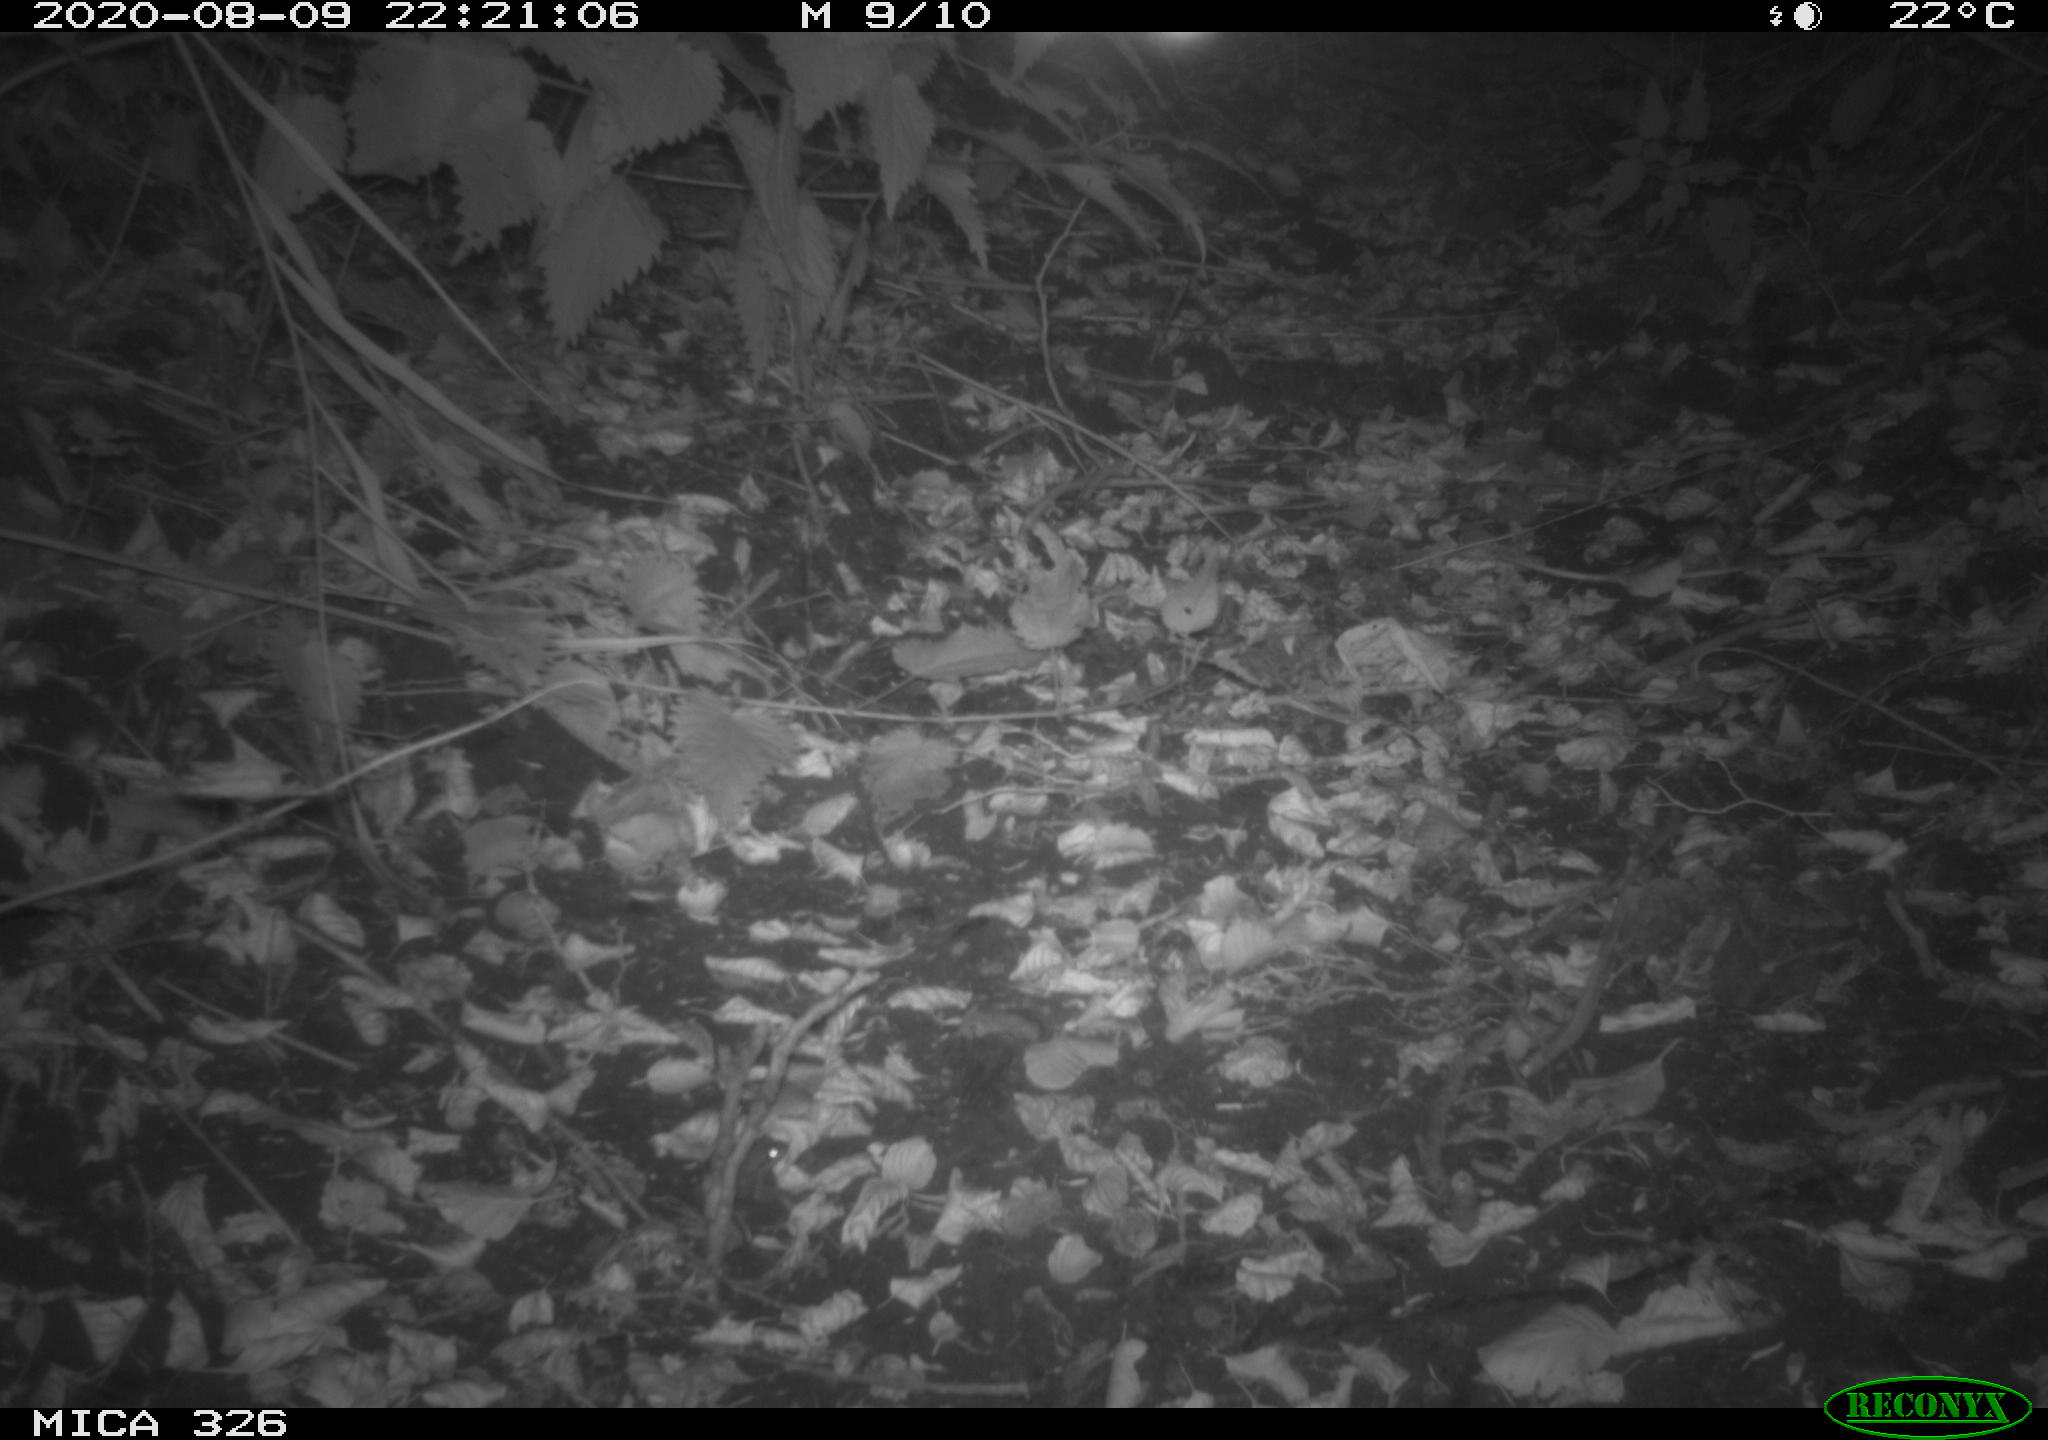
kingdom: Animalia
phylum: Chordata
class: Mammalia
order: Rodentia
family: Muridae
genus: Rattus
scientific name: Rattus norvegicus
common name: Brown rat
